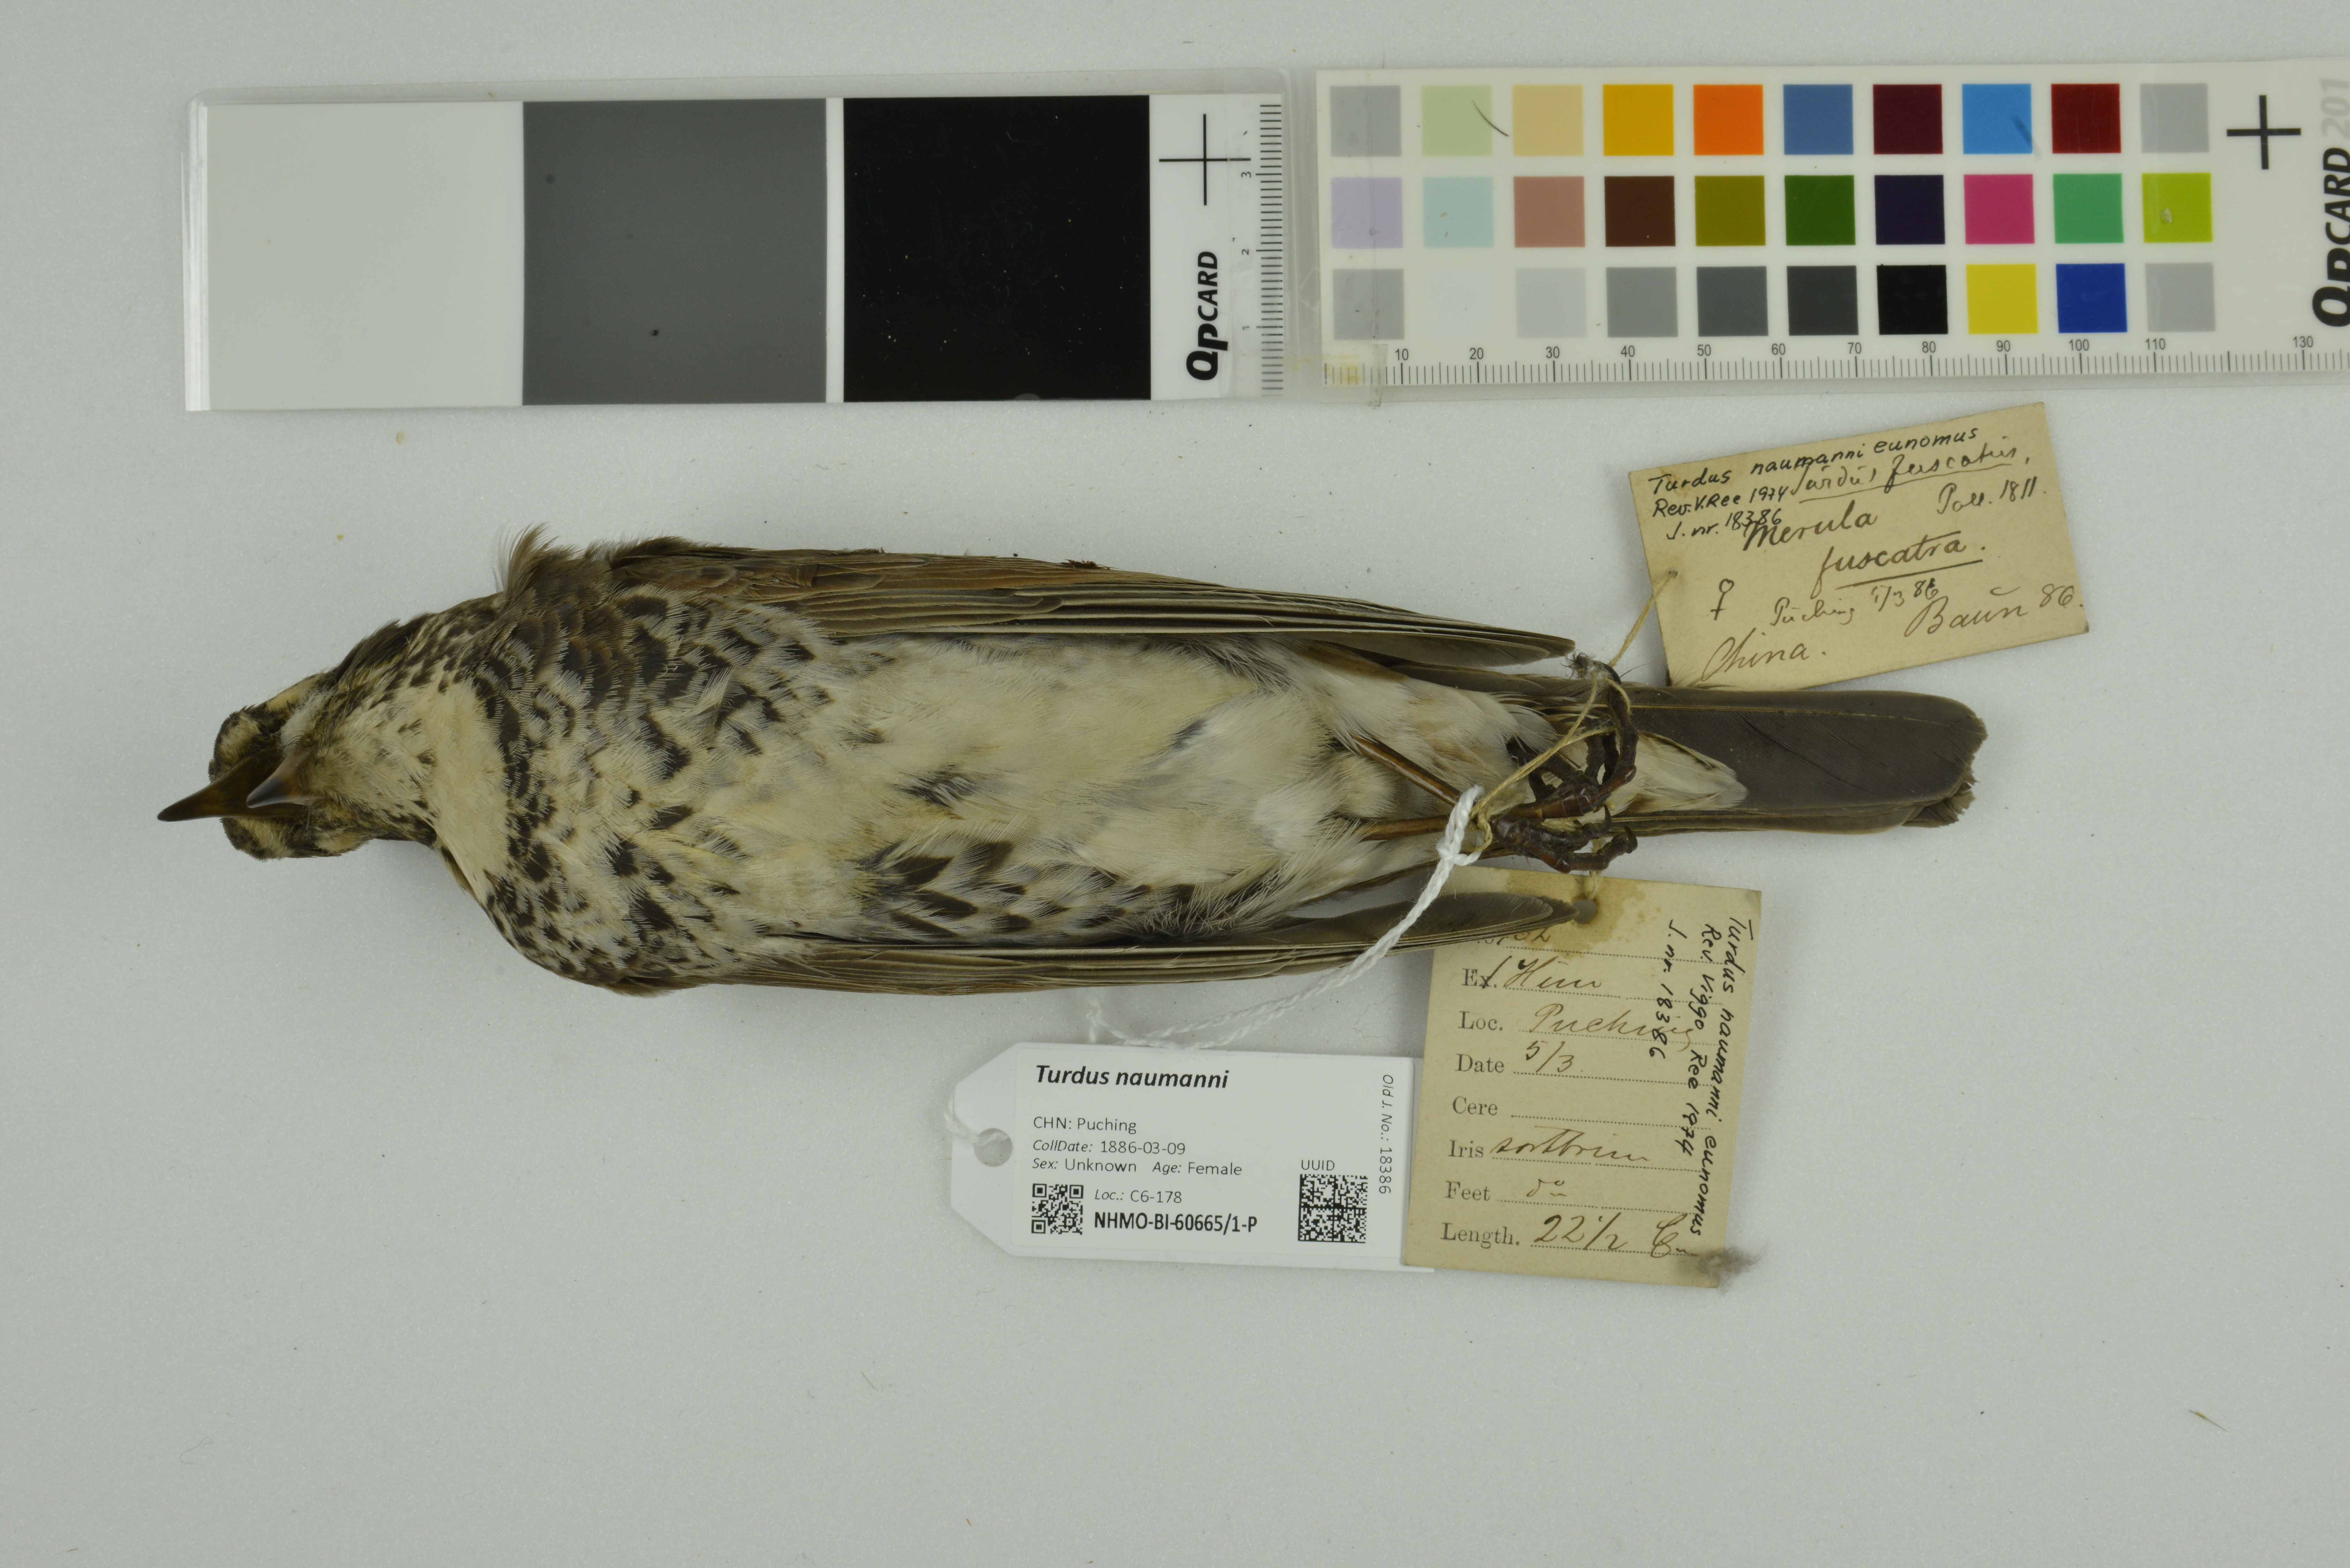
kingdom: Animalia
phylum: Chordata
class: Aves
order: Passeriformes
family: Turdidae
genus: Turdus
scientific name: Turdus naumanni
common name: Naumann's thrush
